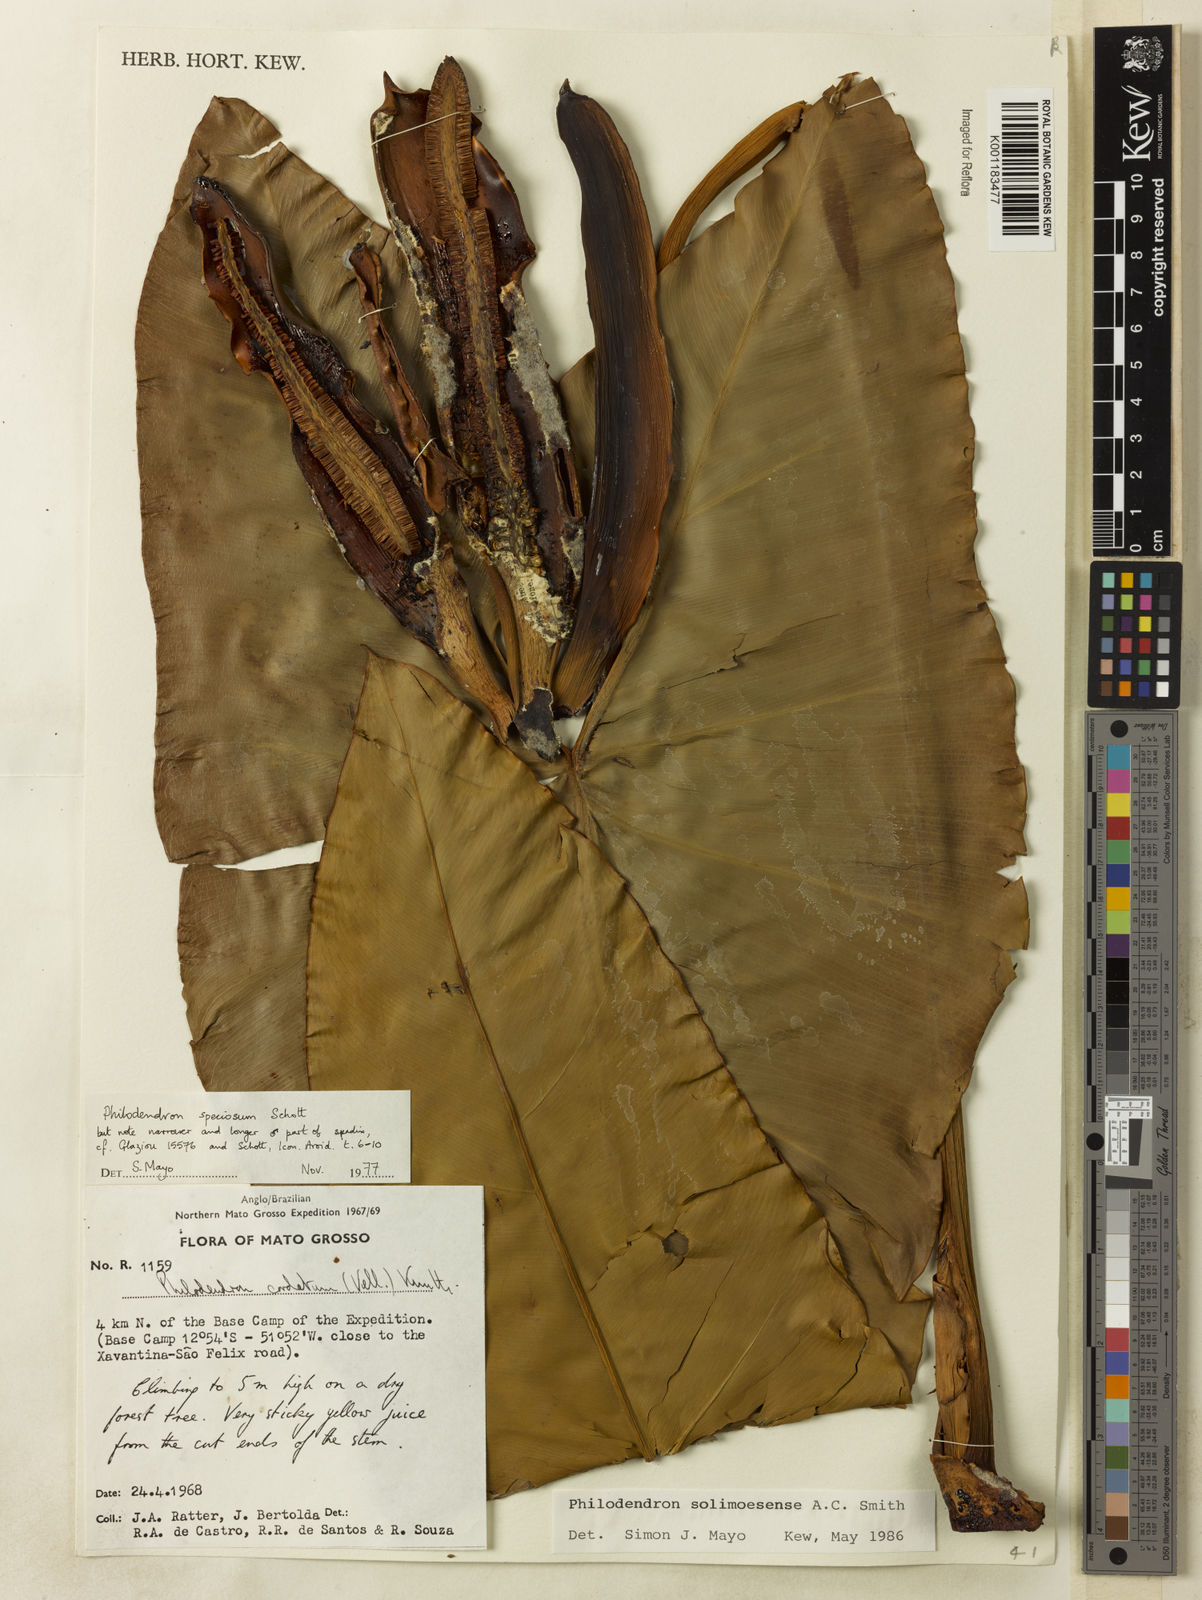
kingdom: Plantae
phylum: Tracheophyta
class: Liliopsida
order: Alismatales
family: Araceae
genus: Thaumatophyllum
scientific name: Thaumatophyllum solimoesense
